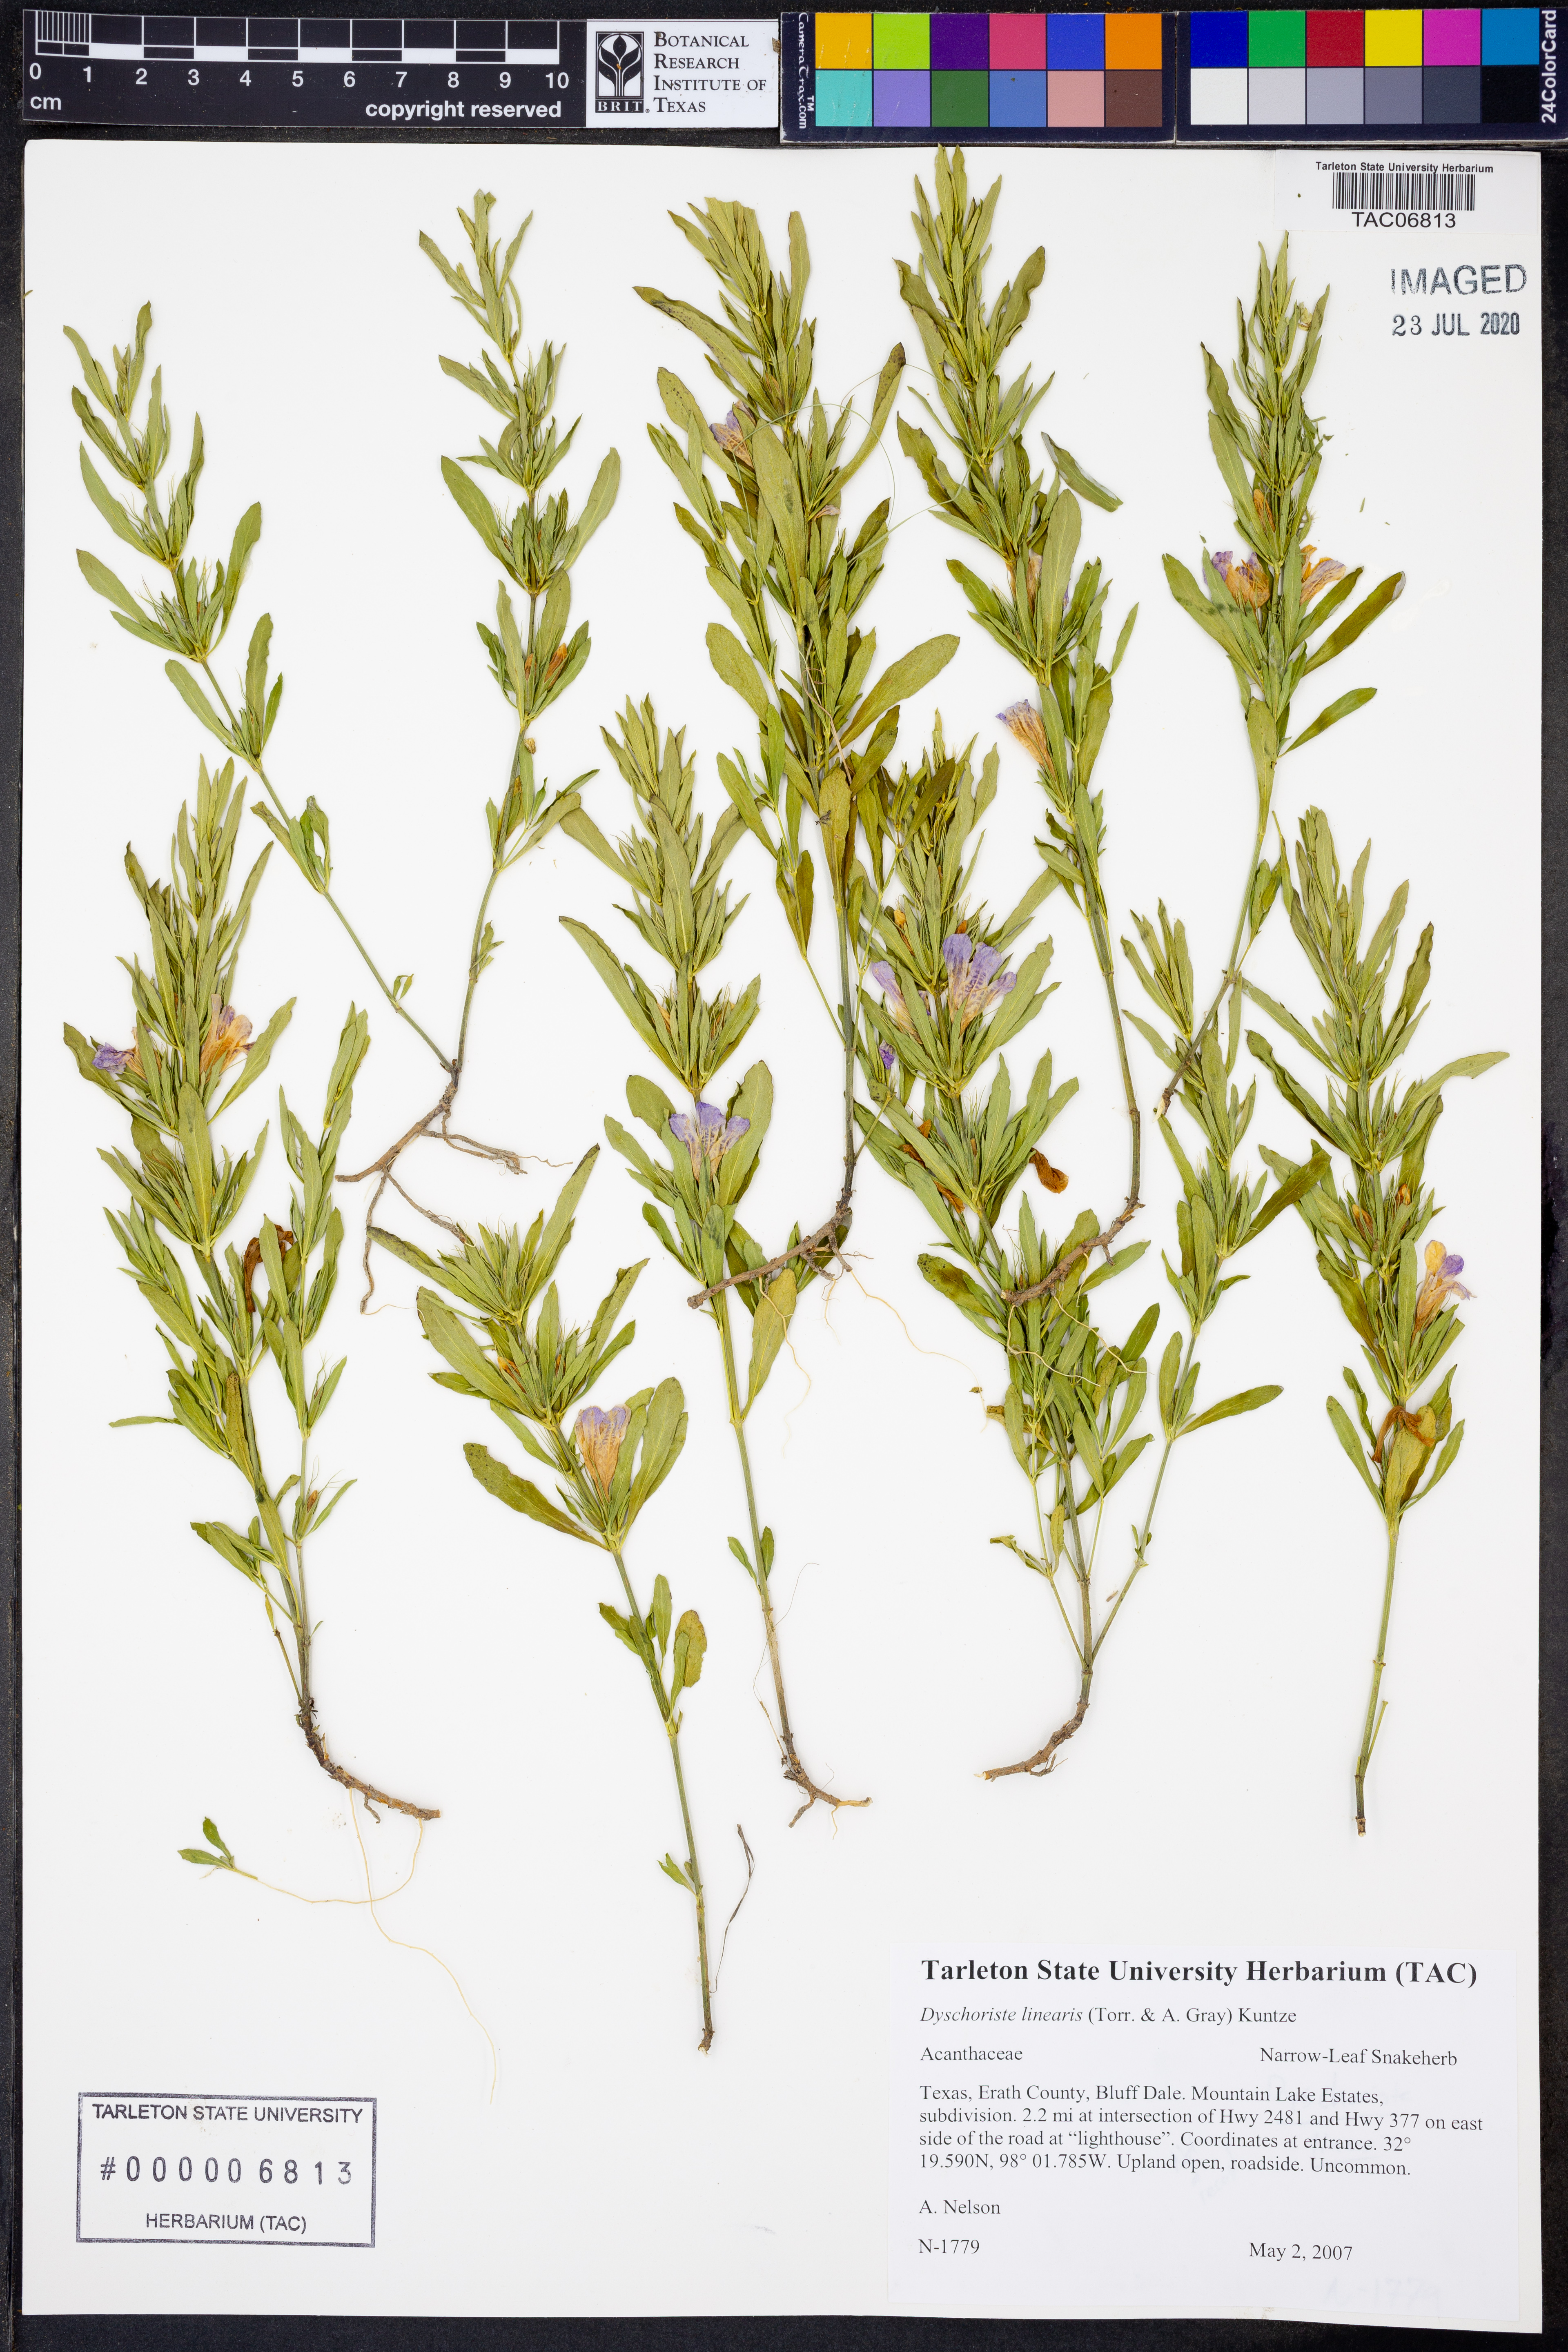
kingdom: Plantae
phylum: Tracheophyta
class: Magnoliopsida
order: Lamiales
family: Acanthaceae
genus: Dyschoriste
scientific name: Dyschoriste linearis
